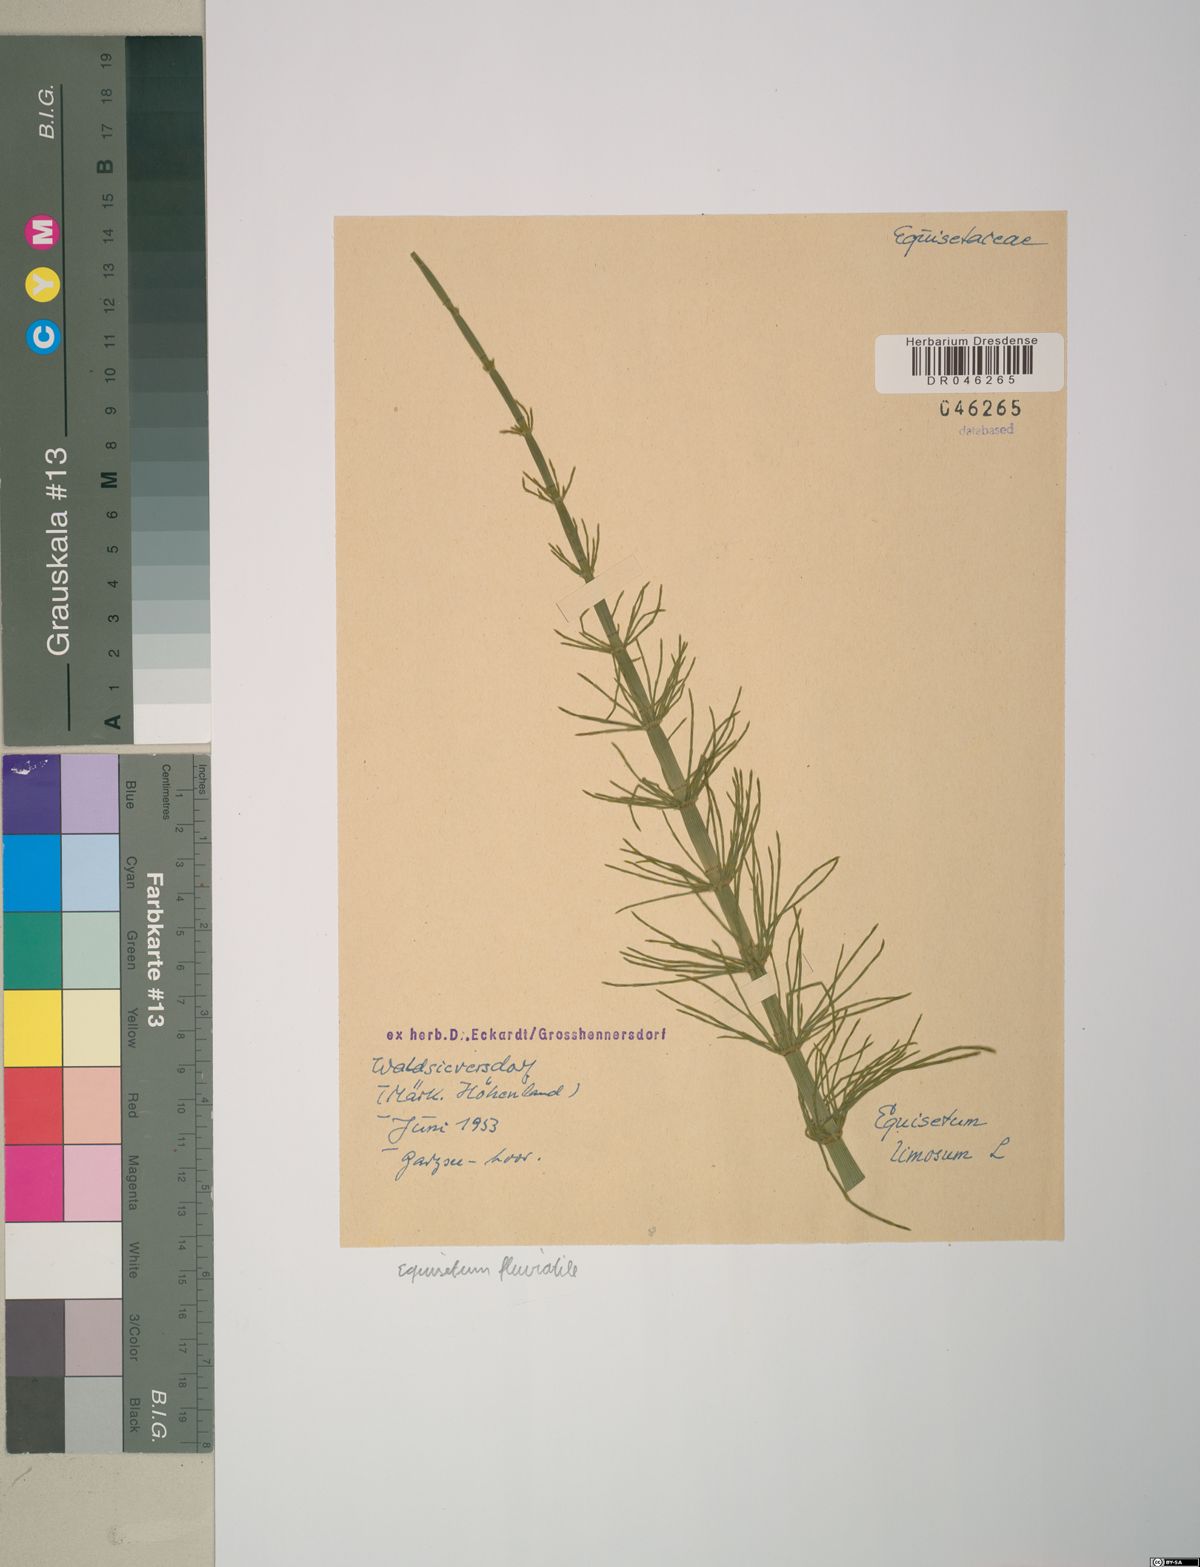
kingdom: Plantae
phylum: Tracheophyta
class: Polypodiopsida
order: Equisetales
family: Equisetaceae
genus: Equisetum
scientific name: Equisetum fluviatile
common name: Water horsetail
